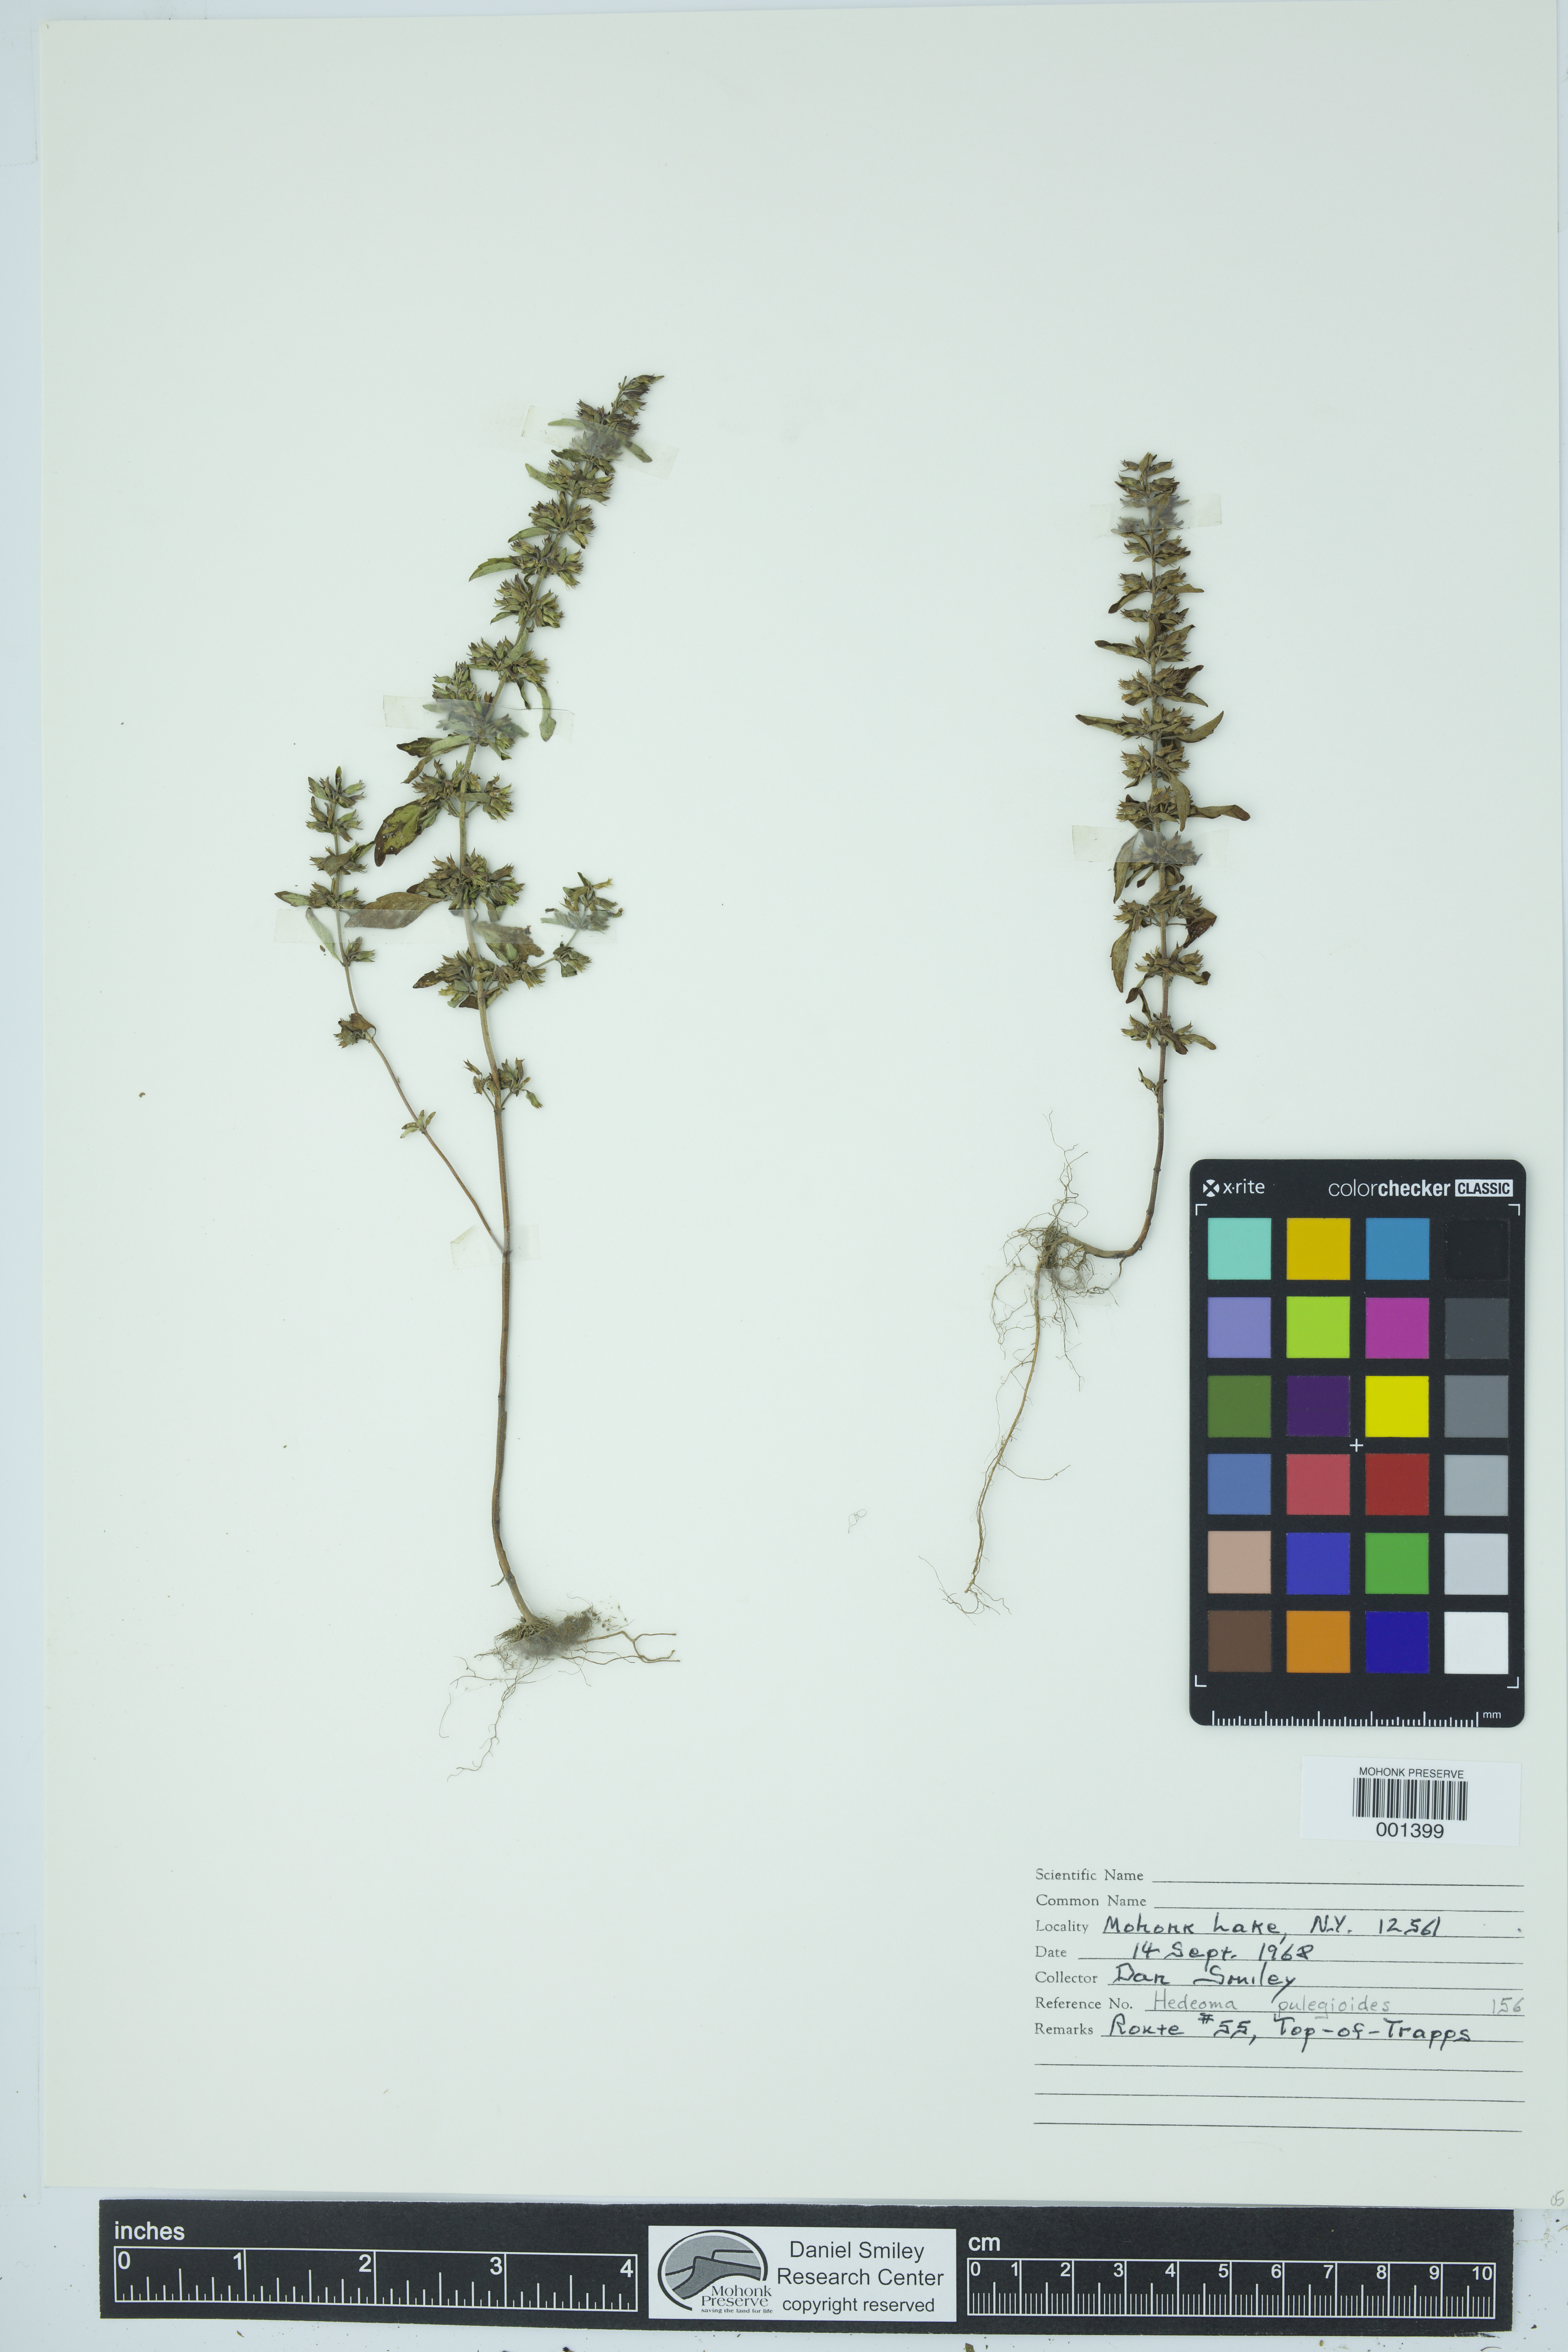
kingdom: Plantae
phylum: Tracheophyta
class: Magnoliopsida
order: Lamiales
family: Lamiaceae
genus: Hedeoma
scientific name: Hedeoma pulegioides
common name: American false pennyroyal
